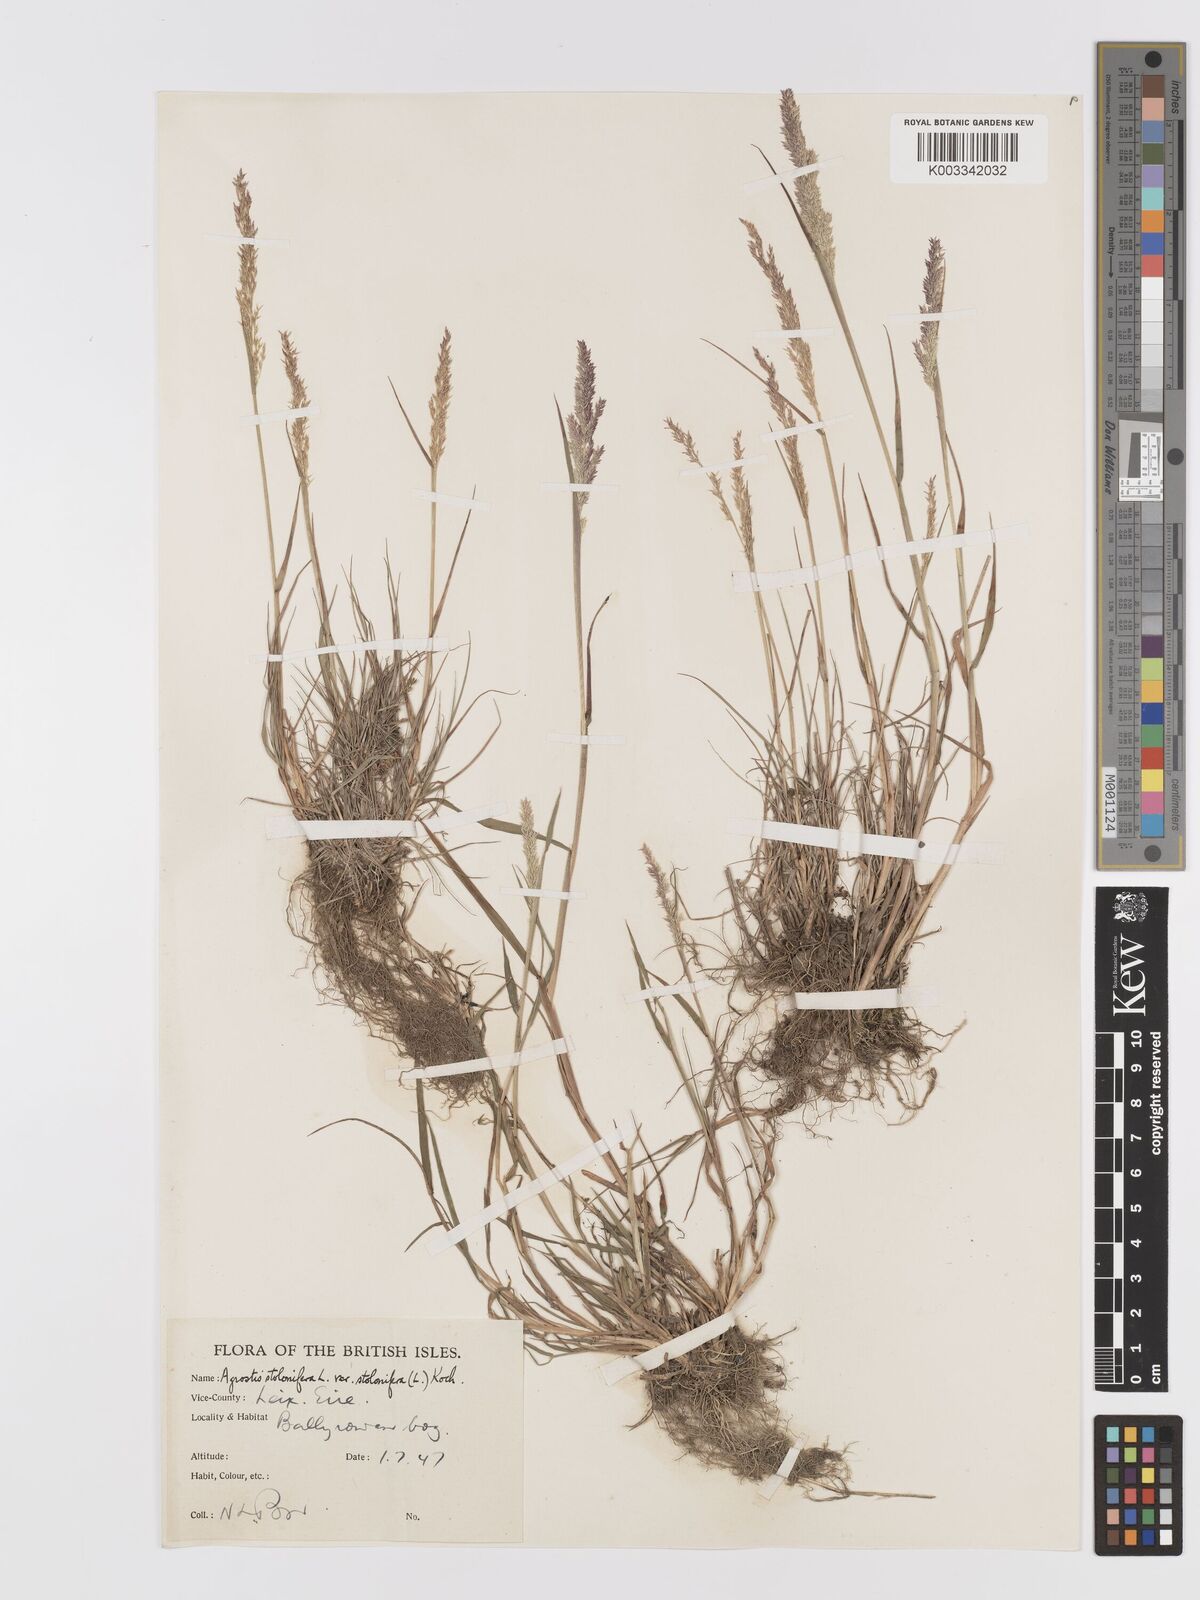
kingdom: Plantae
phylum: Tracheophyta
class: Liliopsida
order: Poales
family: Poaceae
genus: Agrostis
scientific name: Agrostis gigantea
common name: Black bent
